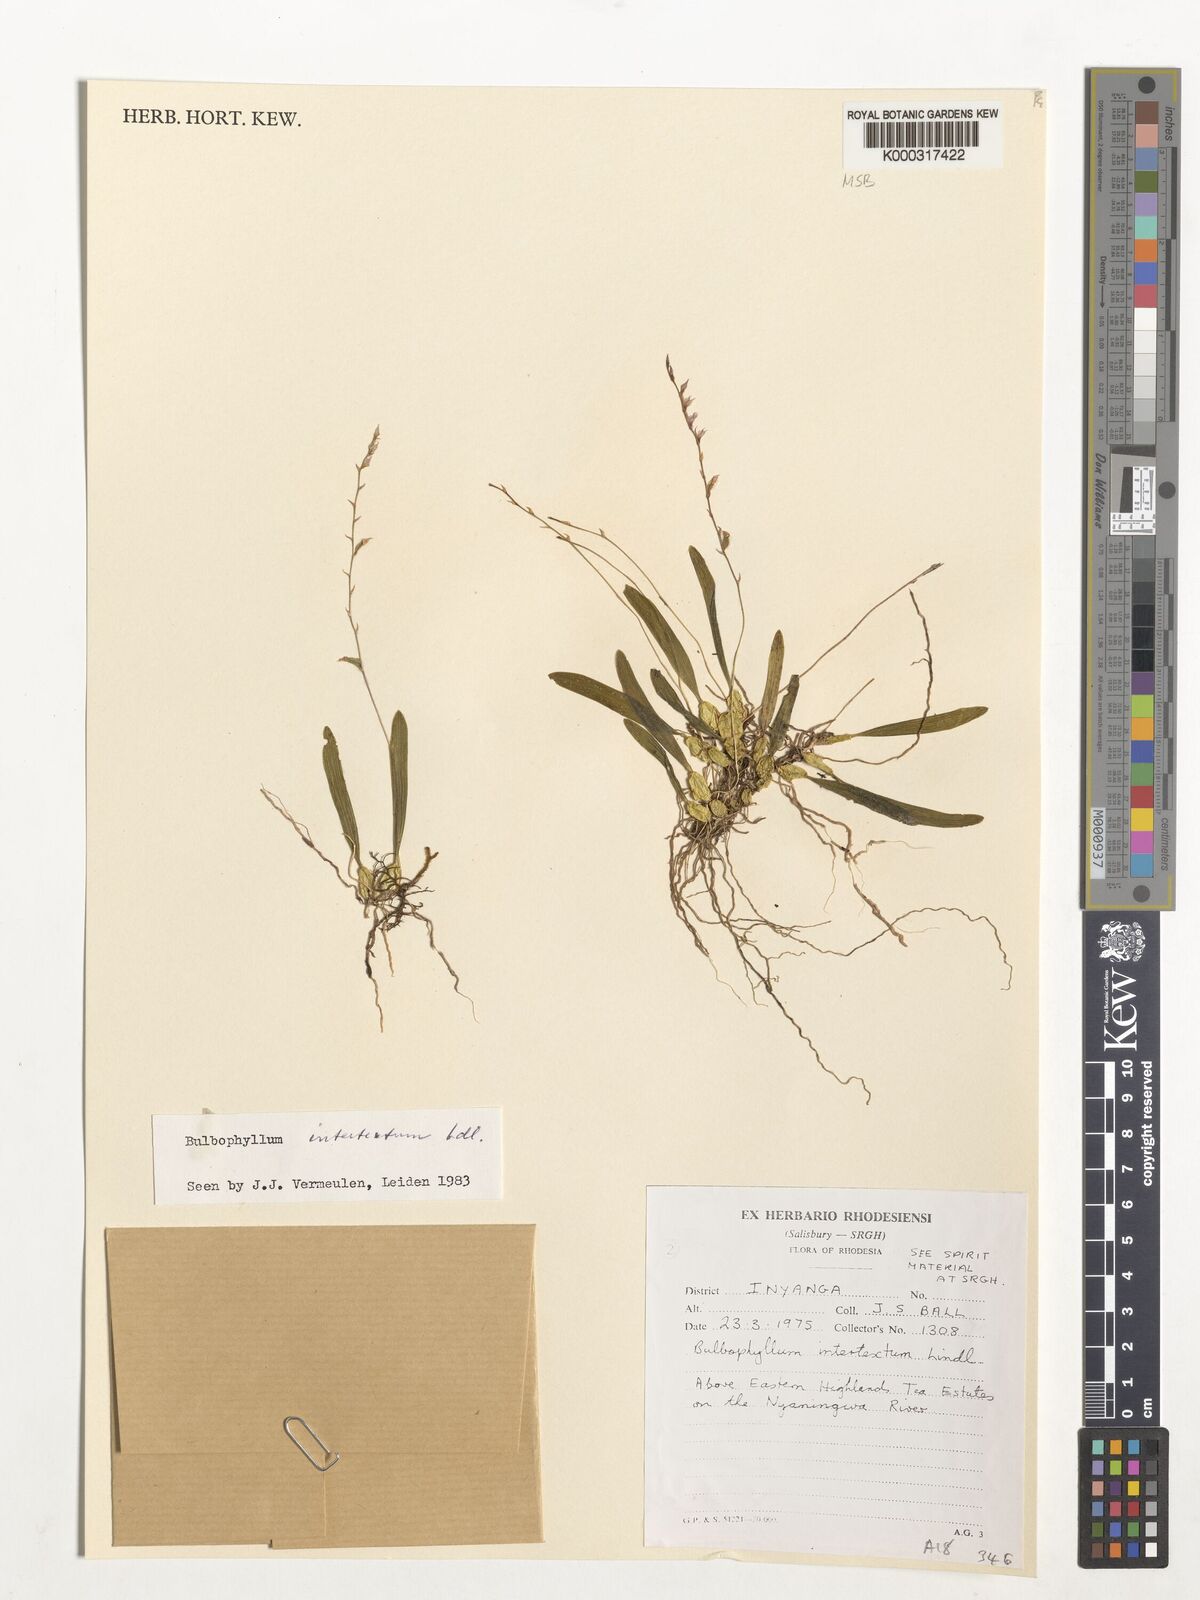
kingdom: Plantae
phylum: Tracheophyta
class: Liliopsida
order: Asparagales
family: Orchidaceae
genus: Bulbophyllum
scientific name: Bulbophyllum intertextum
